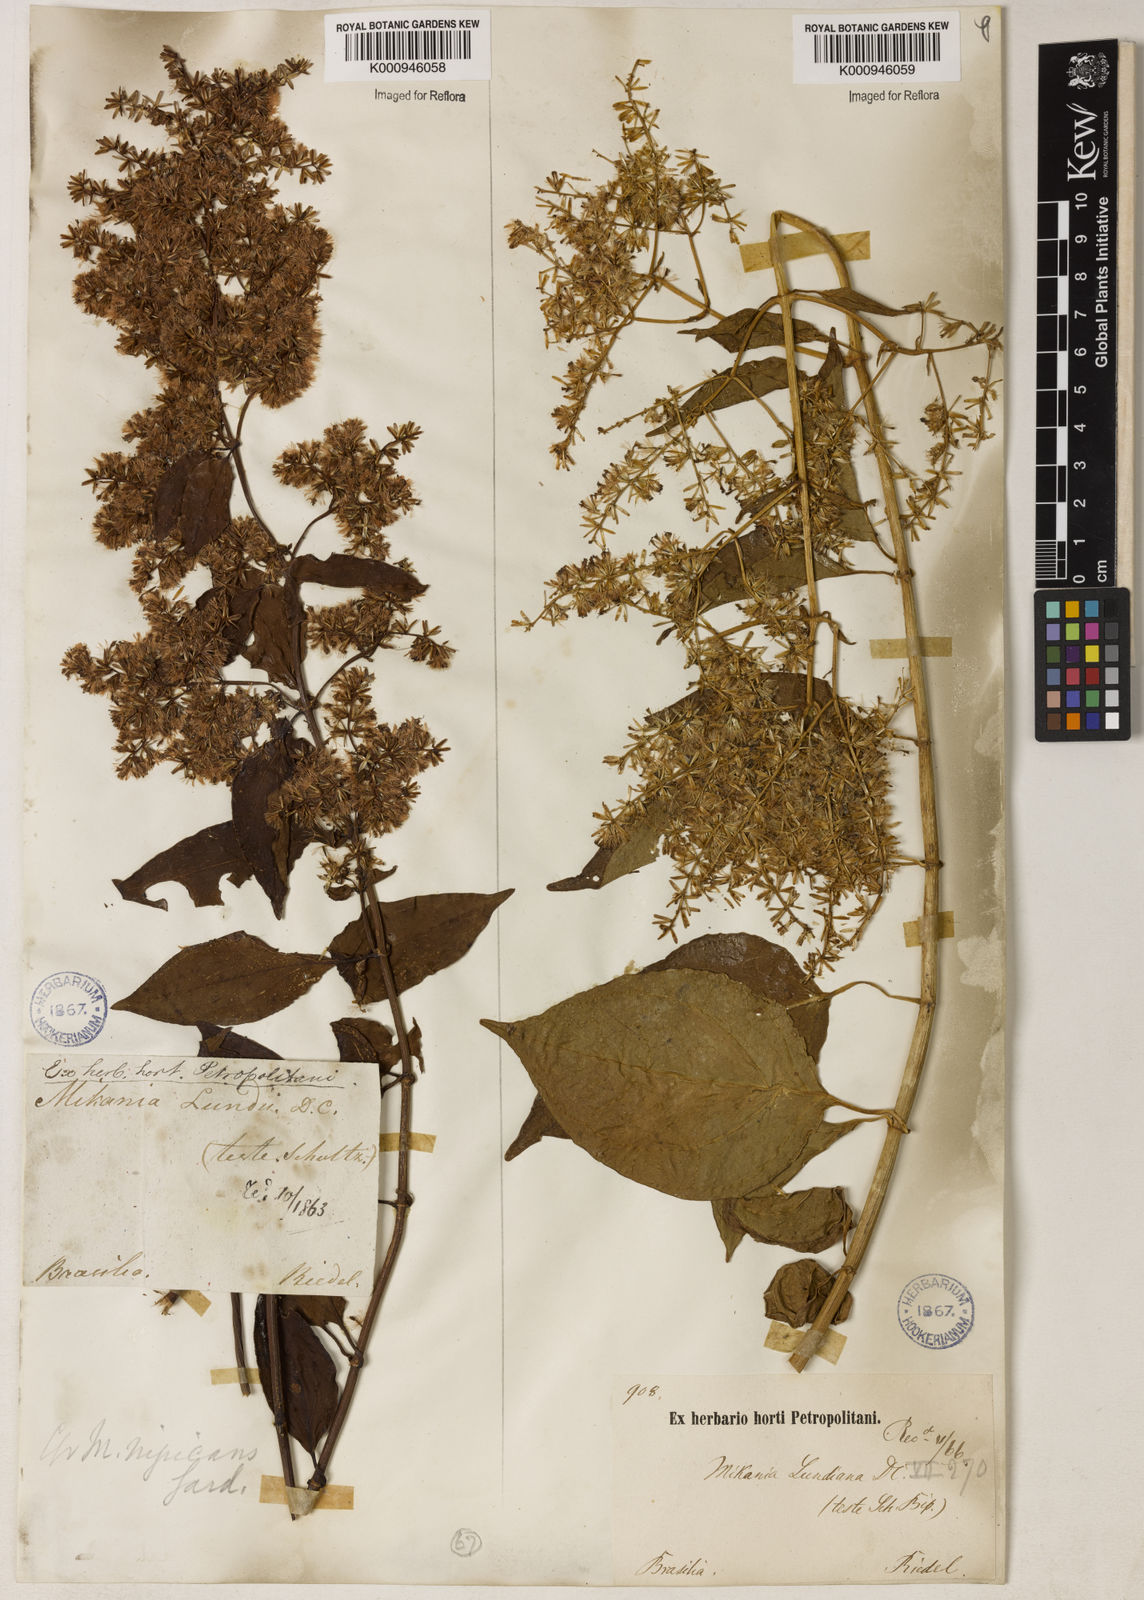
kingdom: Plantae
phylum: Tracheophyta
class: Magnoliopsida
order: Asterales
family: Asteraceae
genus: Mikania
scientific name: Mikania lundiana
